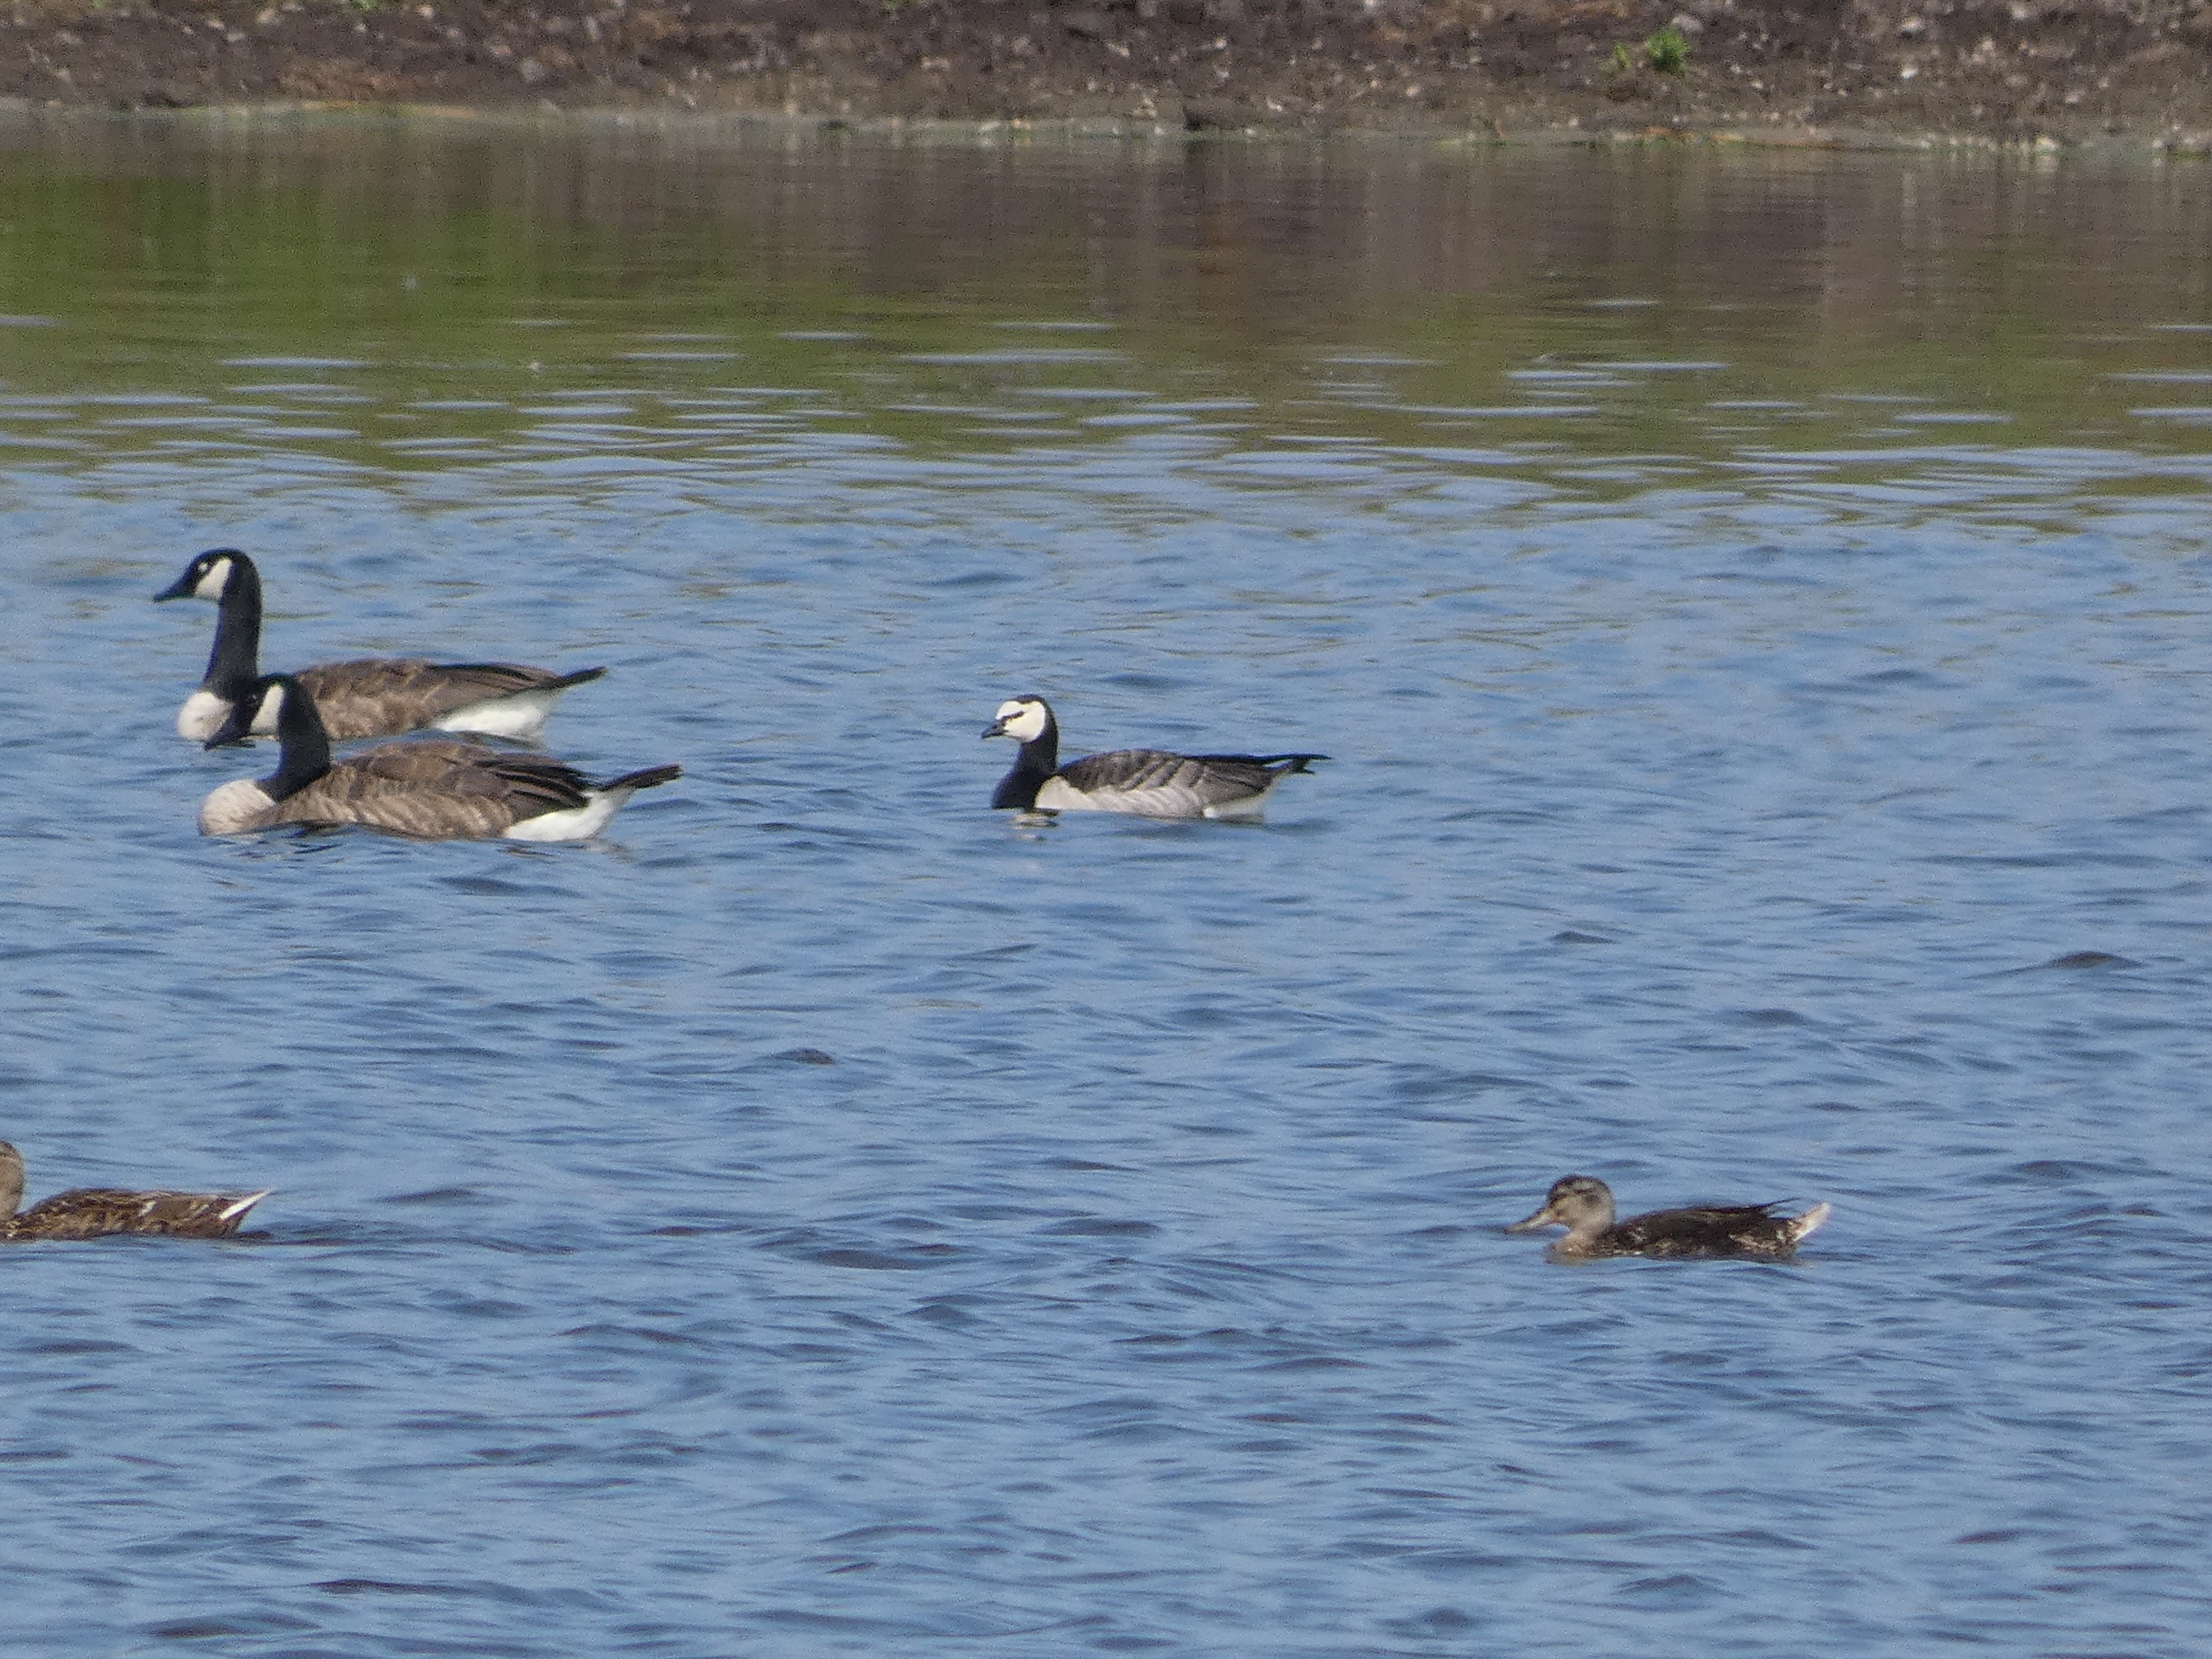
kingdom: Animalia
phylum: Chordata
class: Aves
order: Anseriformes
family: Anatidae
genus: Branta
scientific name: Branta leucopsis
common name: Bramgås
